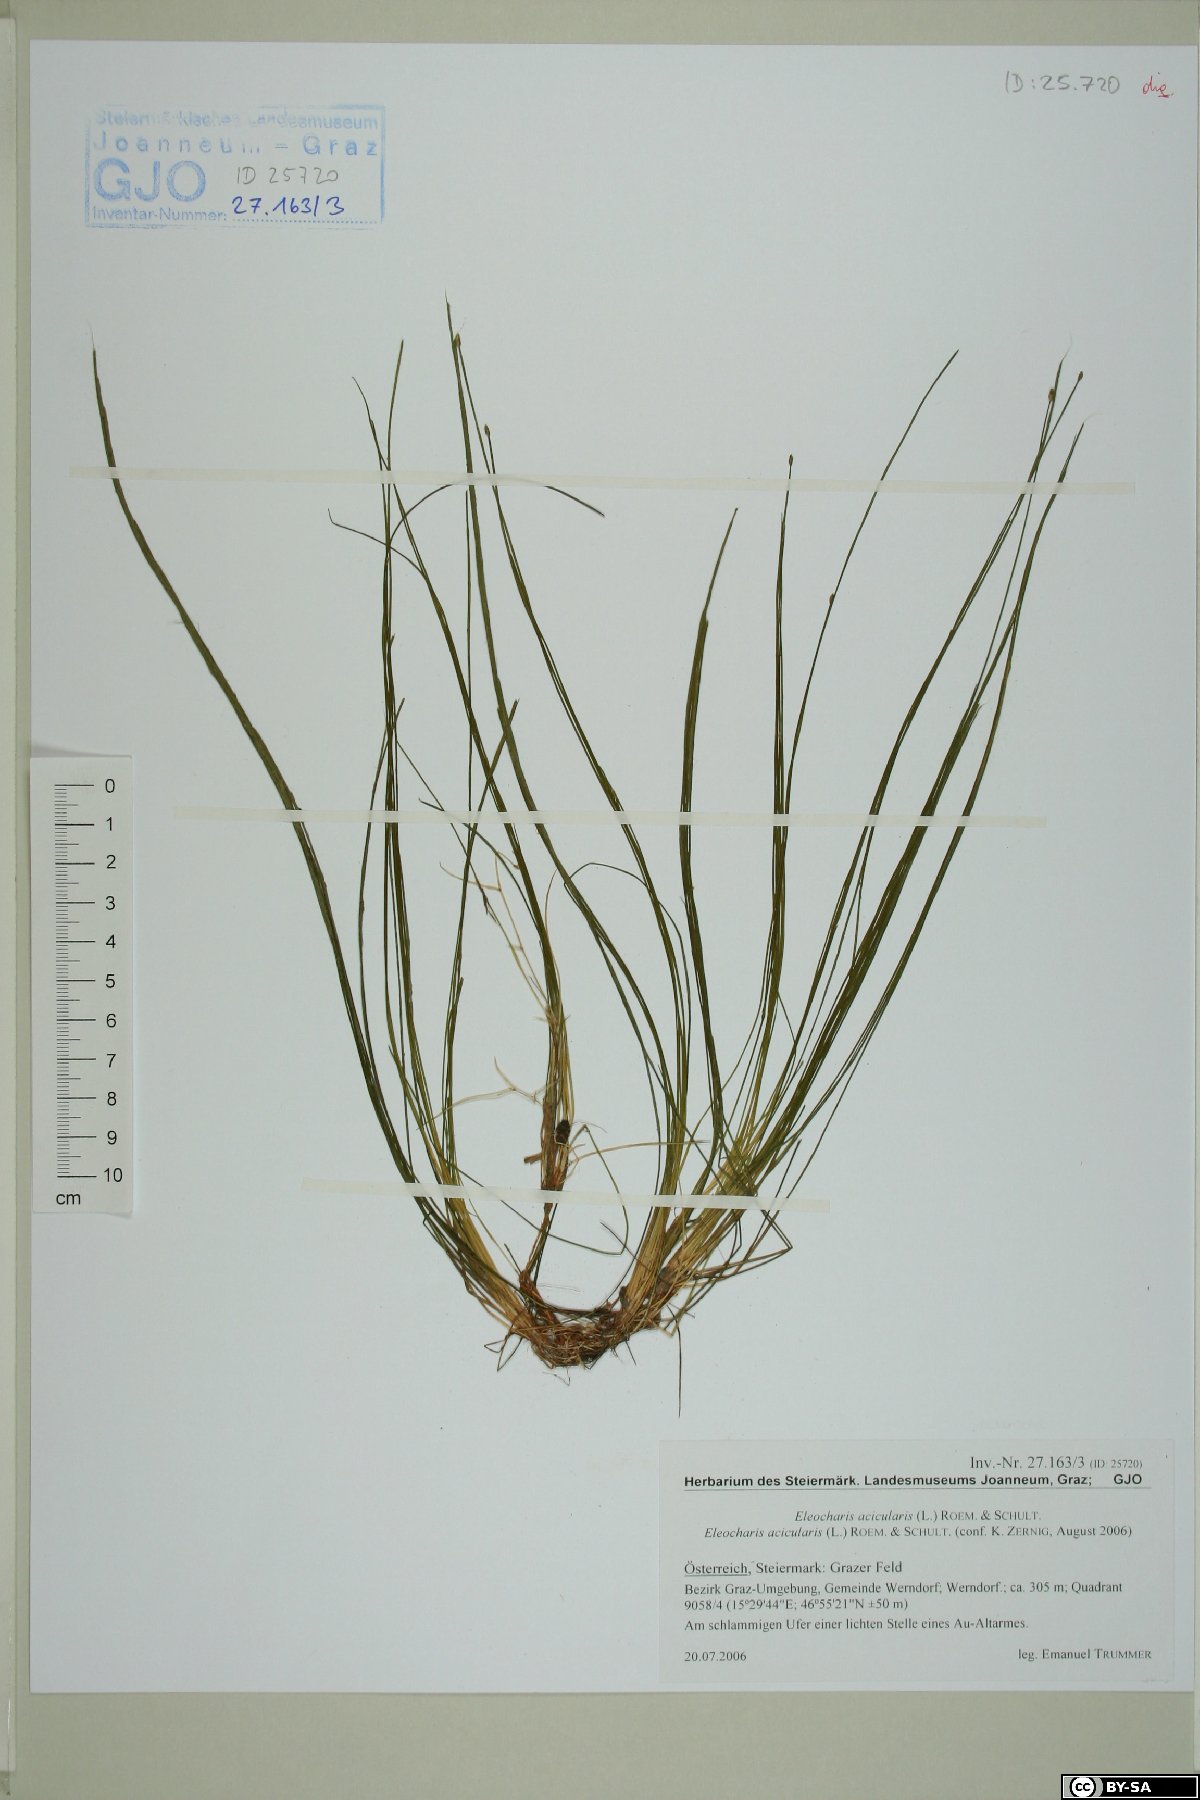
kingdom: Plantae
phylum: Tracheophyta
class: Liliopsida
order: Poales
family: Cyperaceae
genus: Eleocharis
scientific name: Eleocharis acicularis
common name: Needle spike-rush
